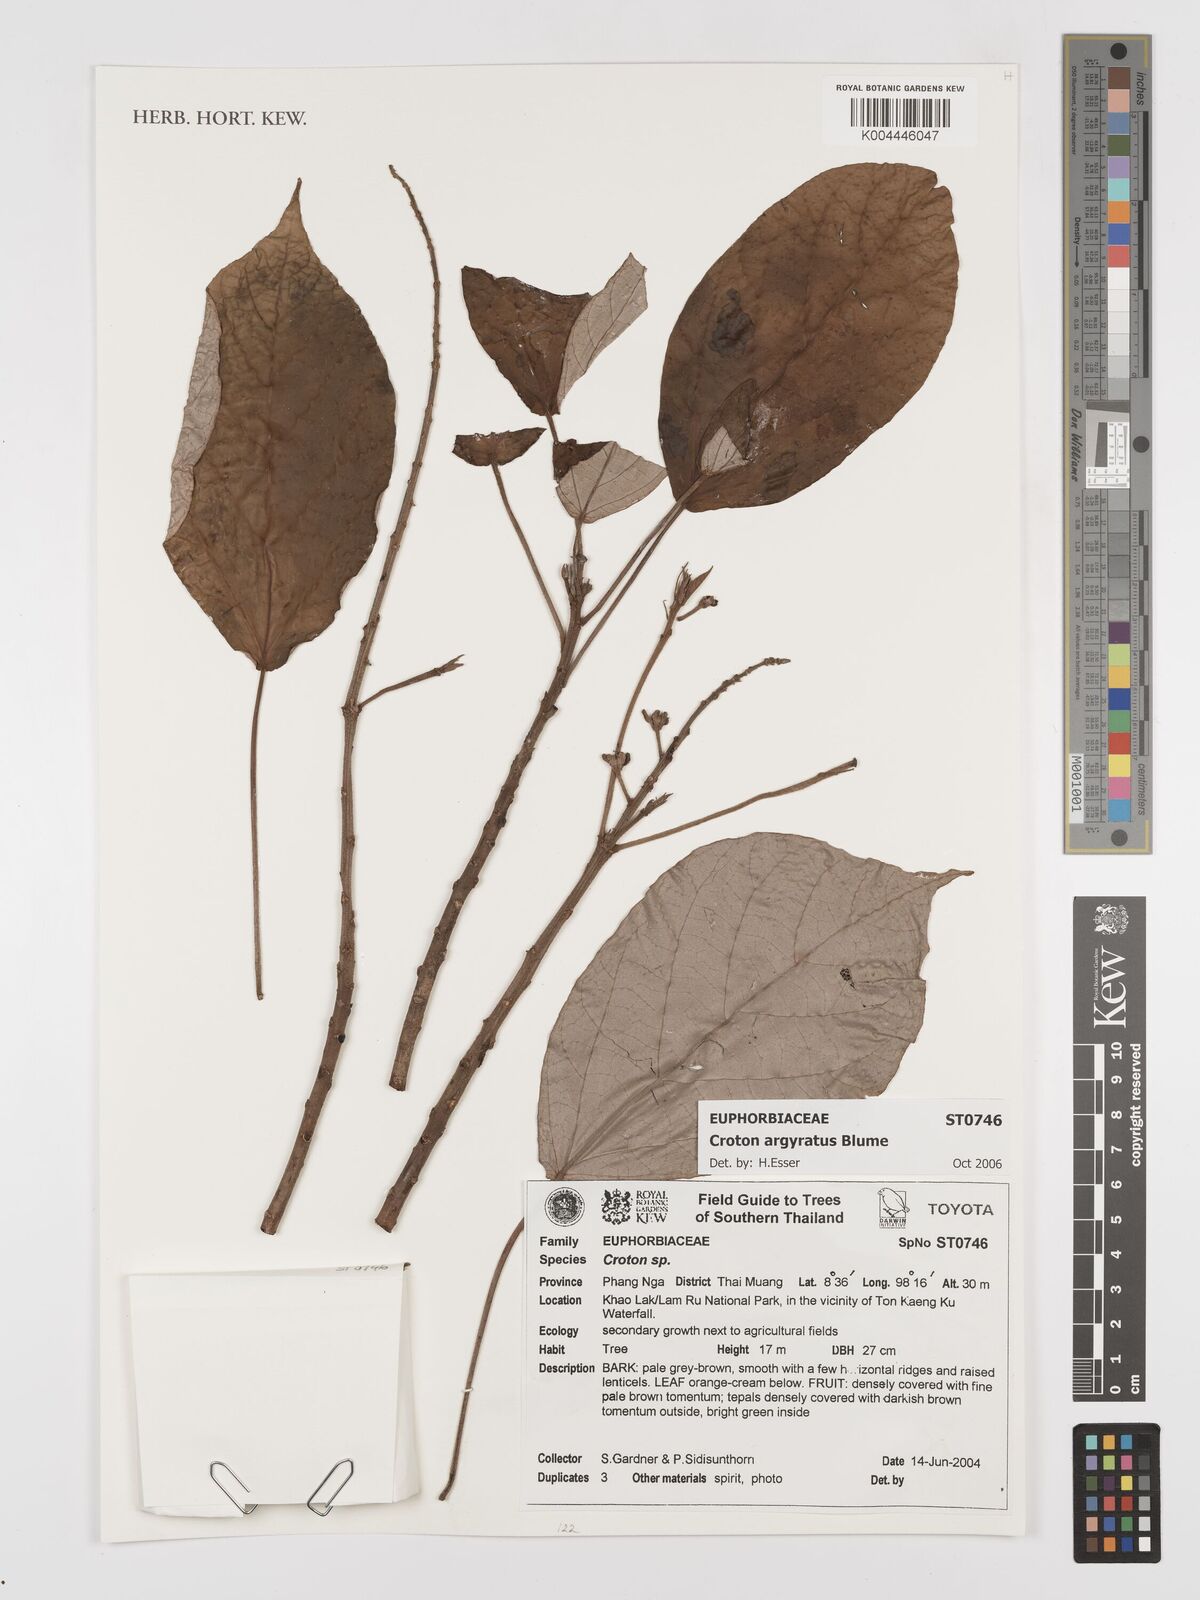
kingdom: Plantae
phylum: Tracheophyta
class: Magnoliopsida
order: Malpighiales
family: Euphorbiaceae
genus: Croton
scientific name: Croton argyratus
